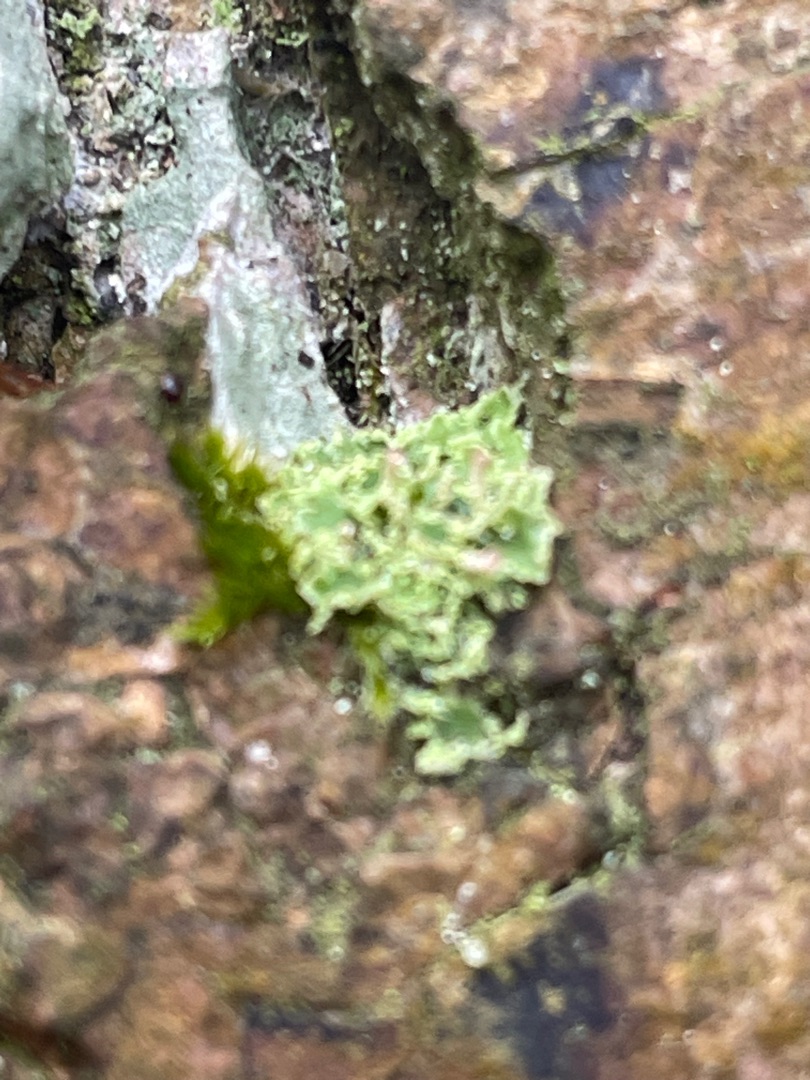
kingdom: Fungi
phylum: Ascomycota
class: Lecanoromycetes
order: Lecanorales
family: Cladoniaceae
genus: Cladonia
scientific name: Cladonia
